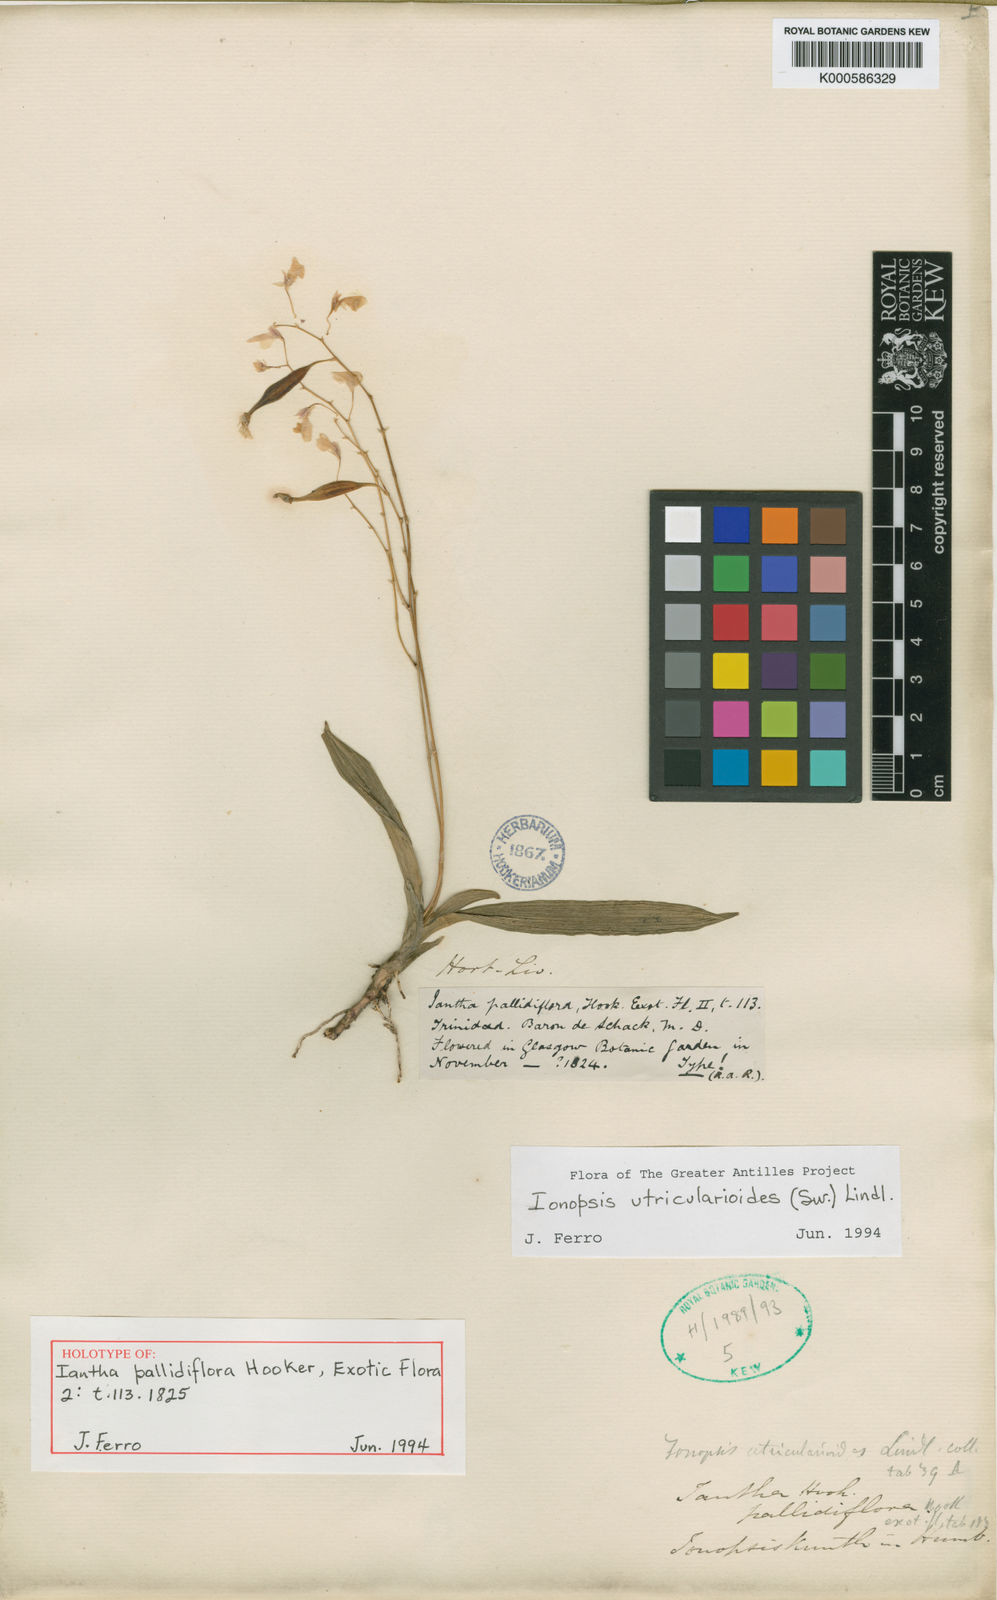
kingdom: Plantae
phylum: Tracheophyta
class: Liliopsida
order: Asparagales
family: Orchidaceae
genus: Ionopsis
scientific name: Ionopsis utricularioides
